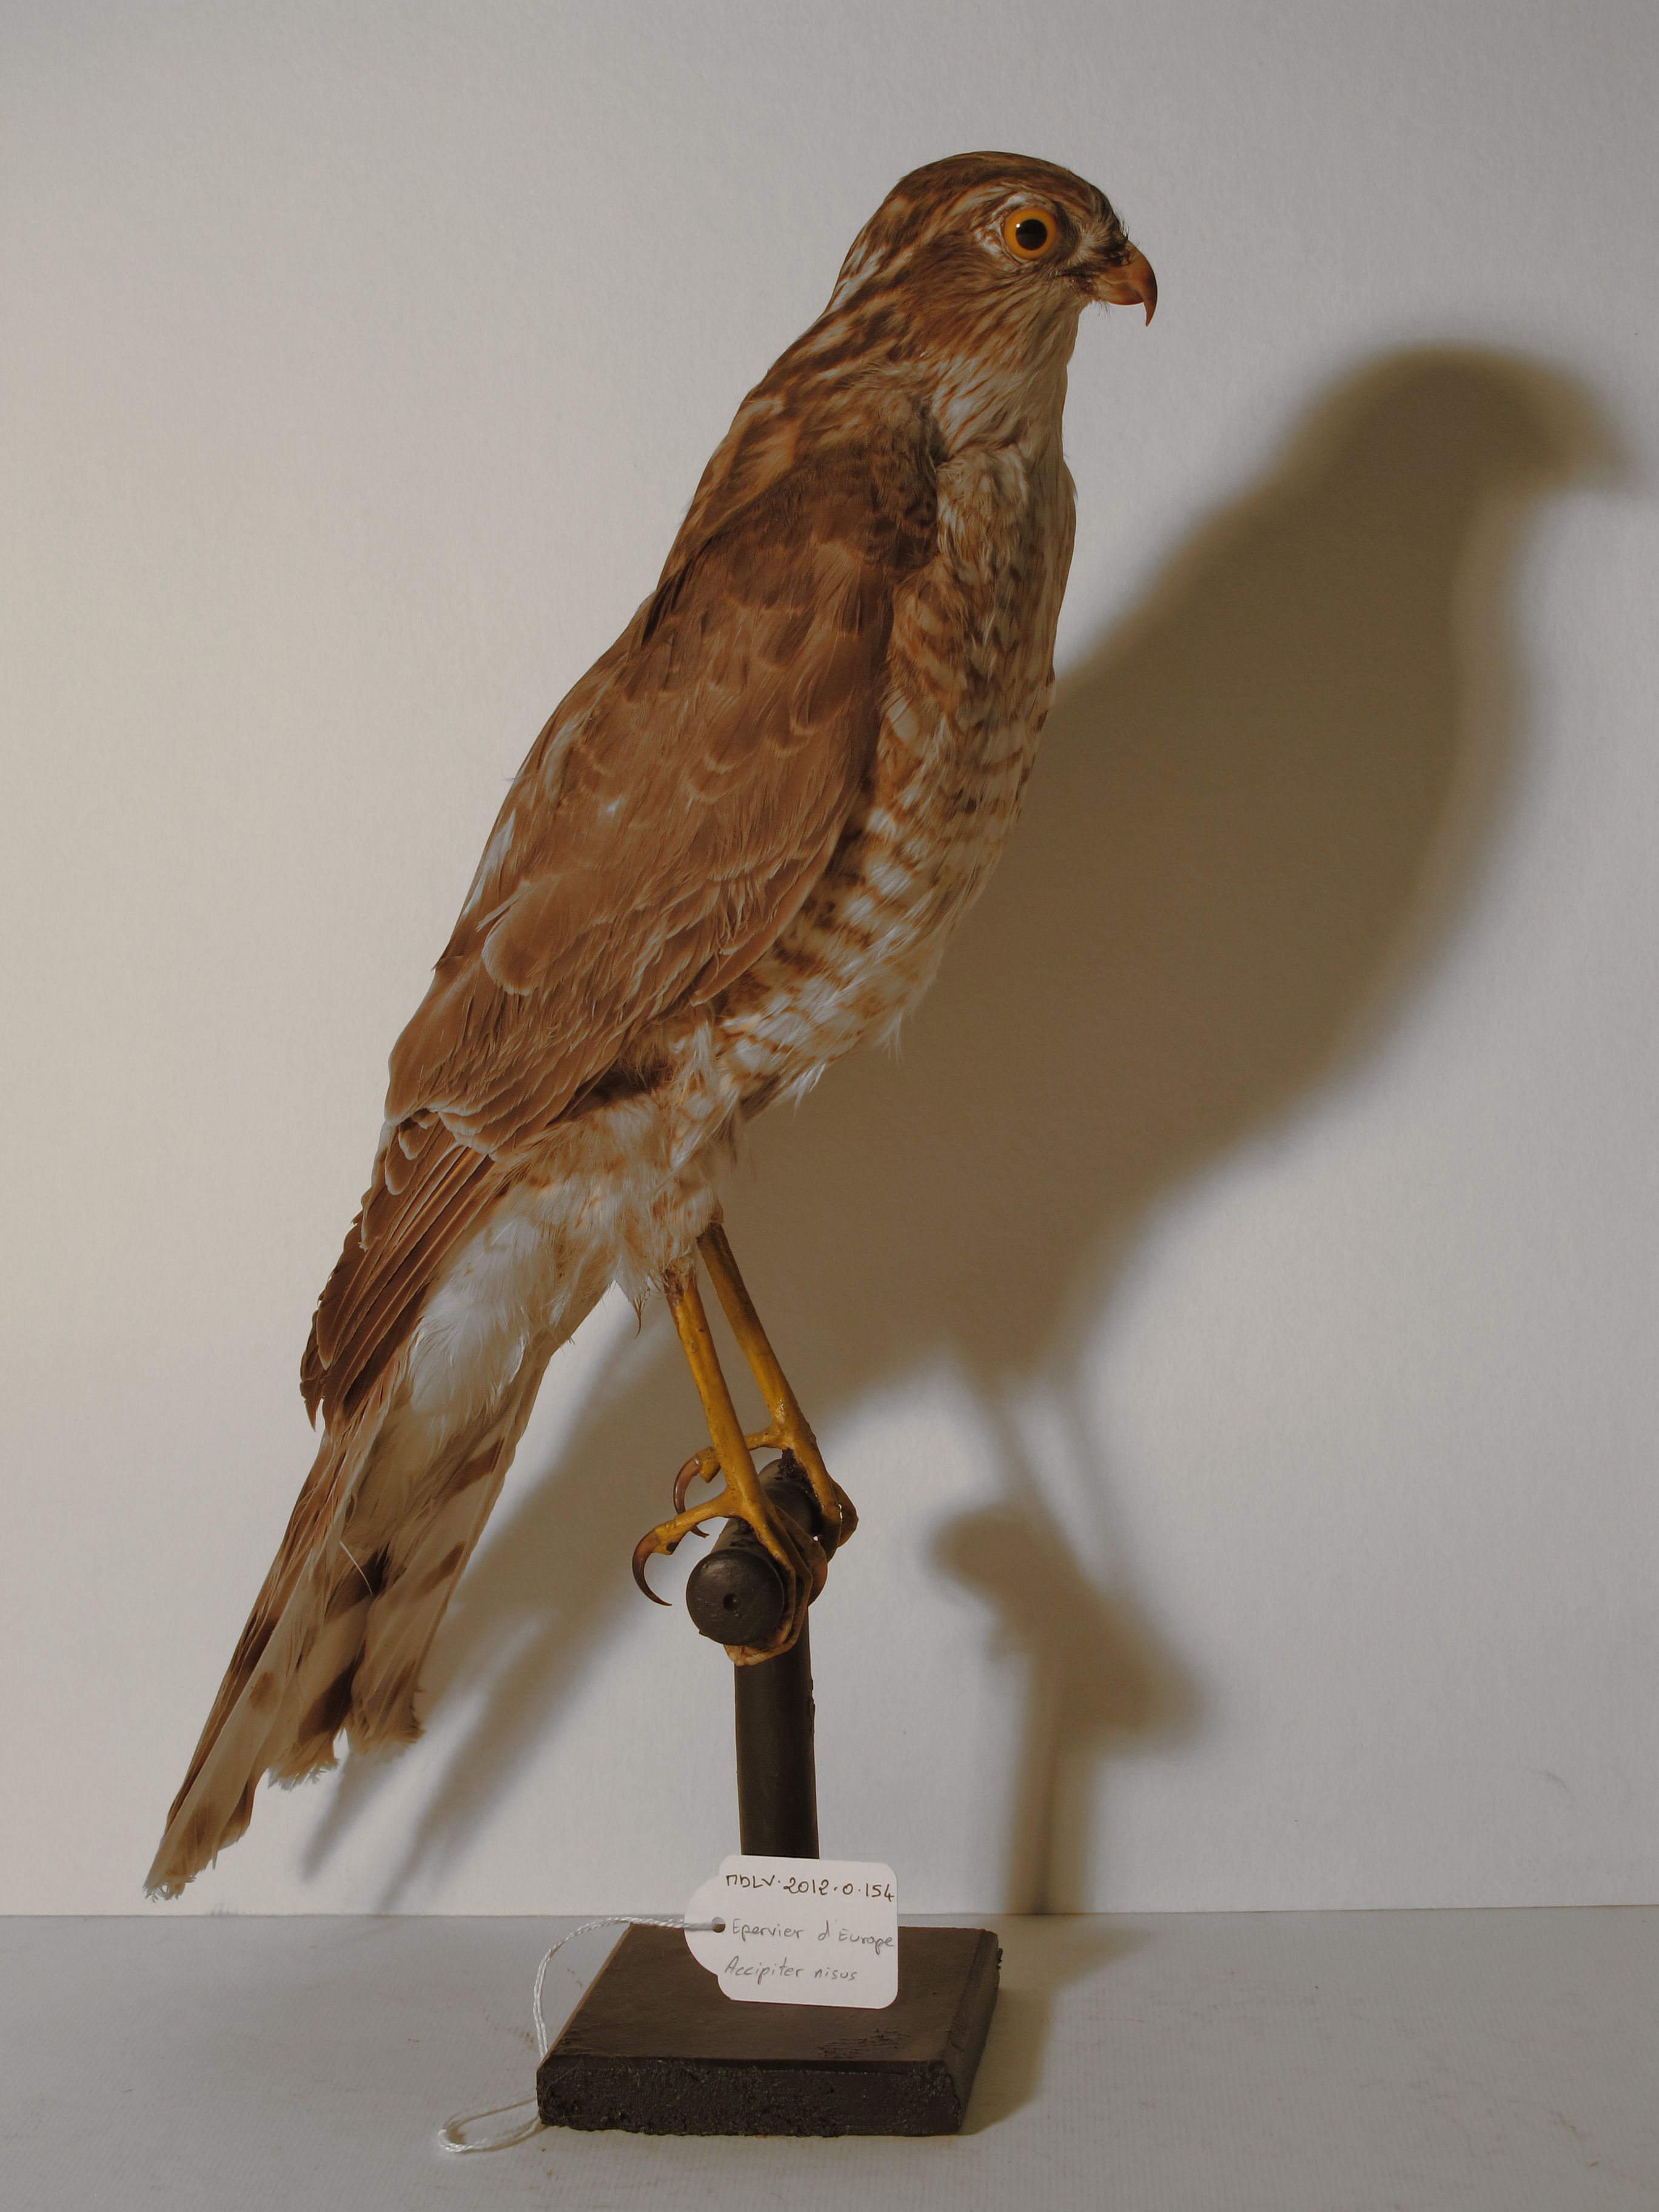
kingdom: Animalia
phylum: Chordata
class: Aves
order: Accipitriformes
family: Accipitridae
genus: Accipiter
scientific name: Accipiter nisus
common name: Eurasian Sparrowhawk
